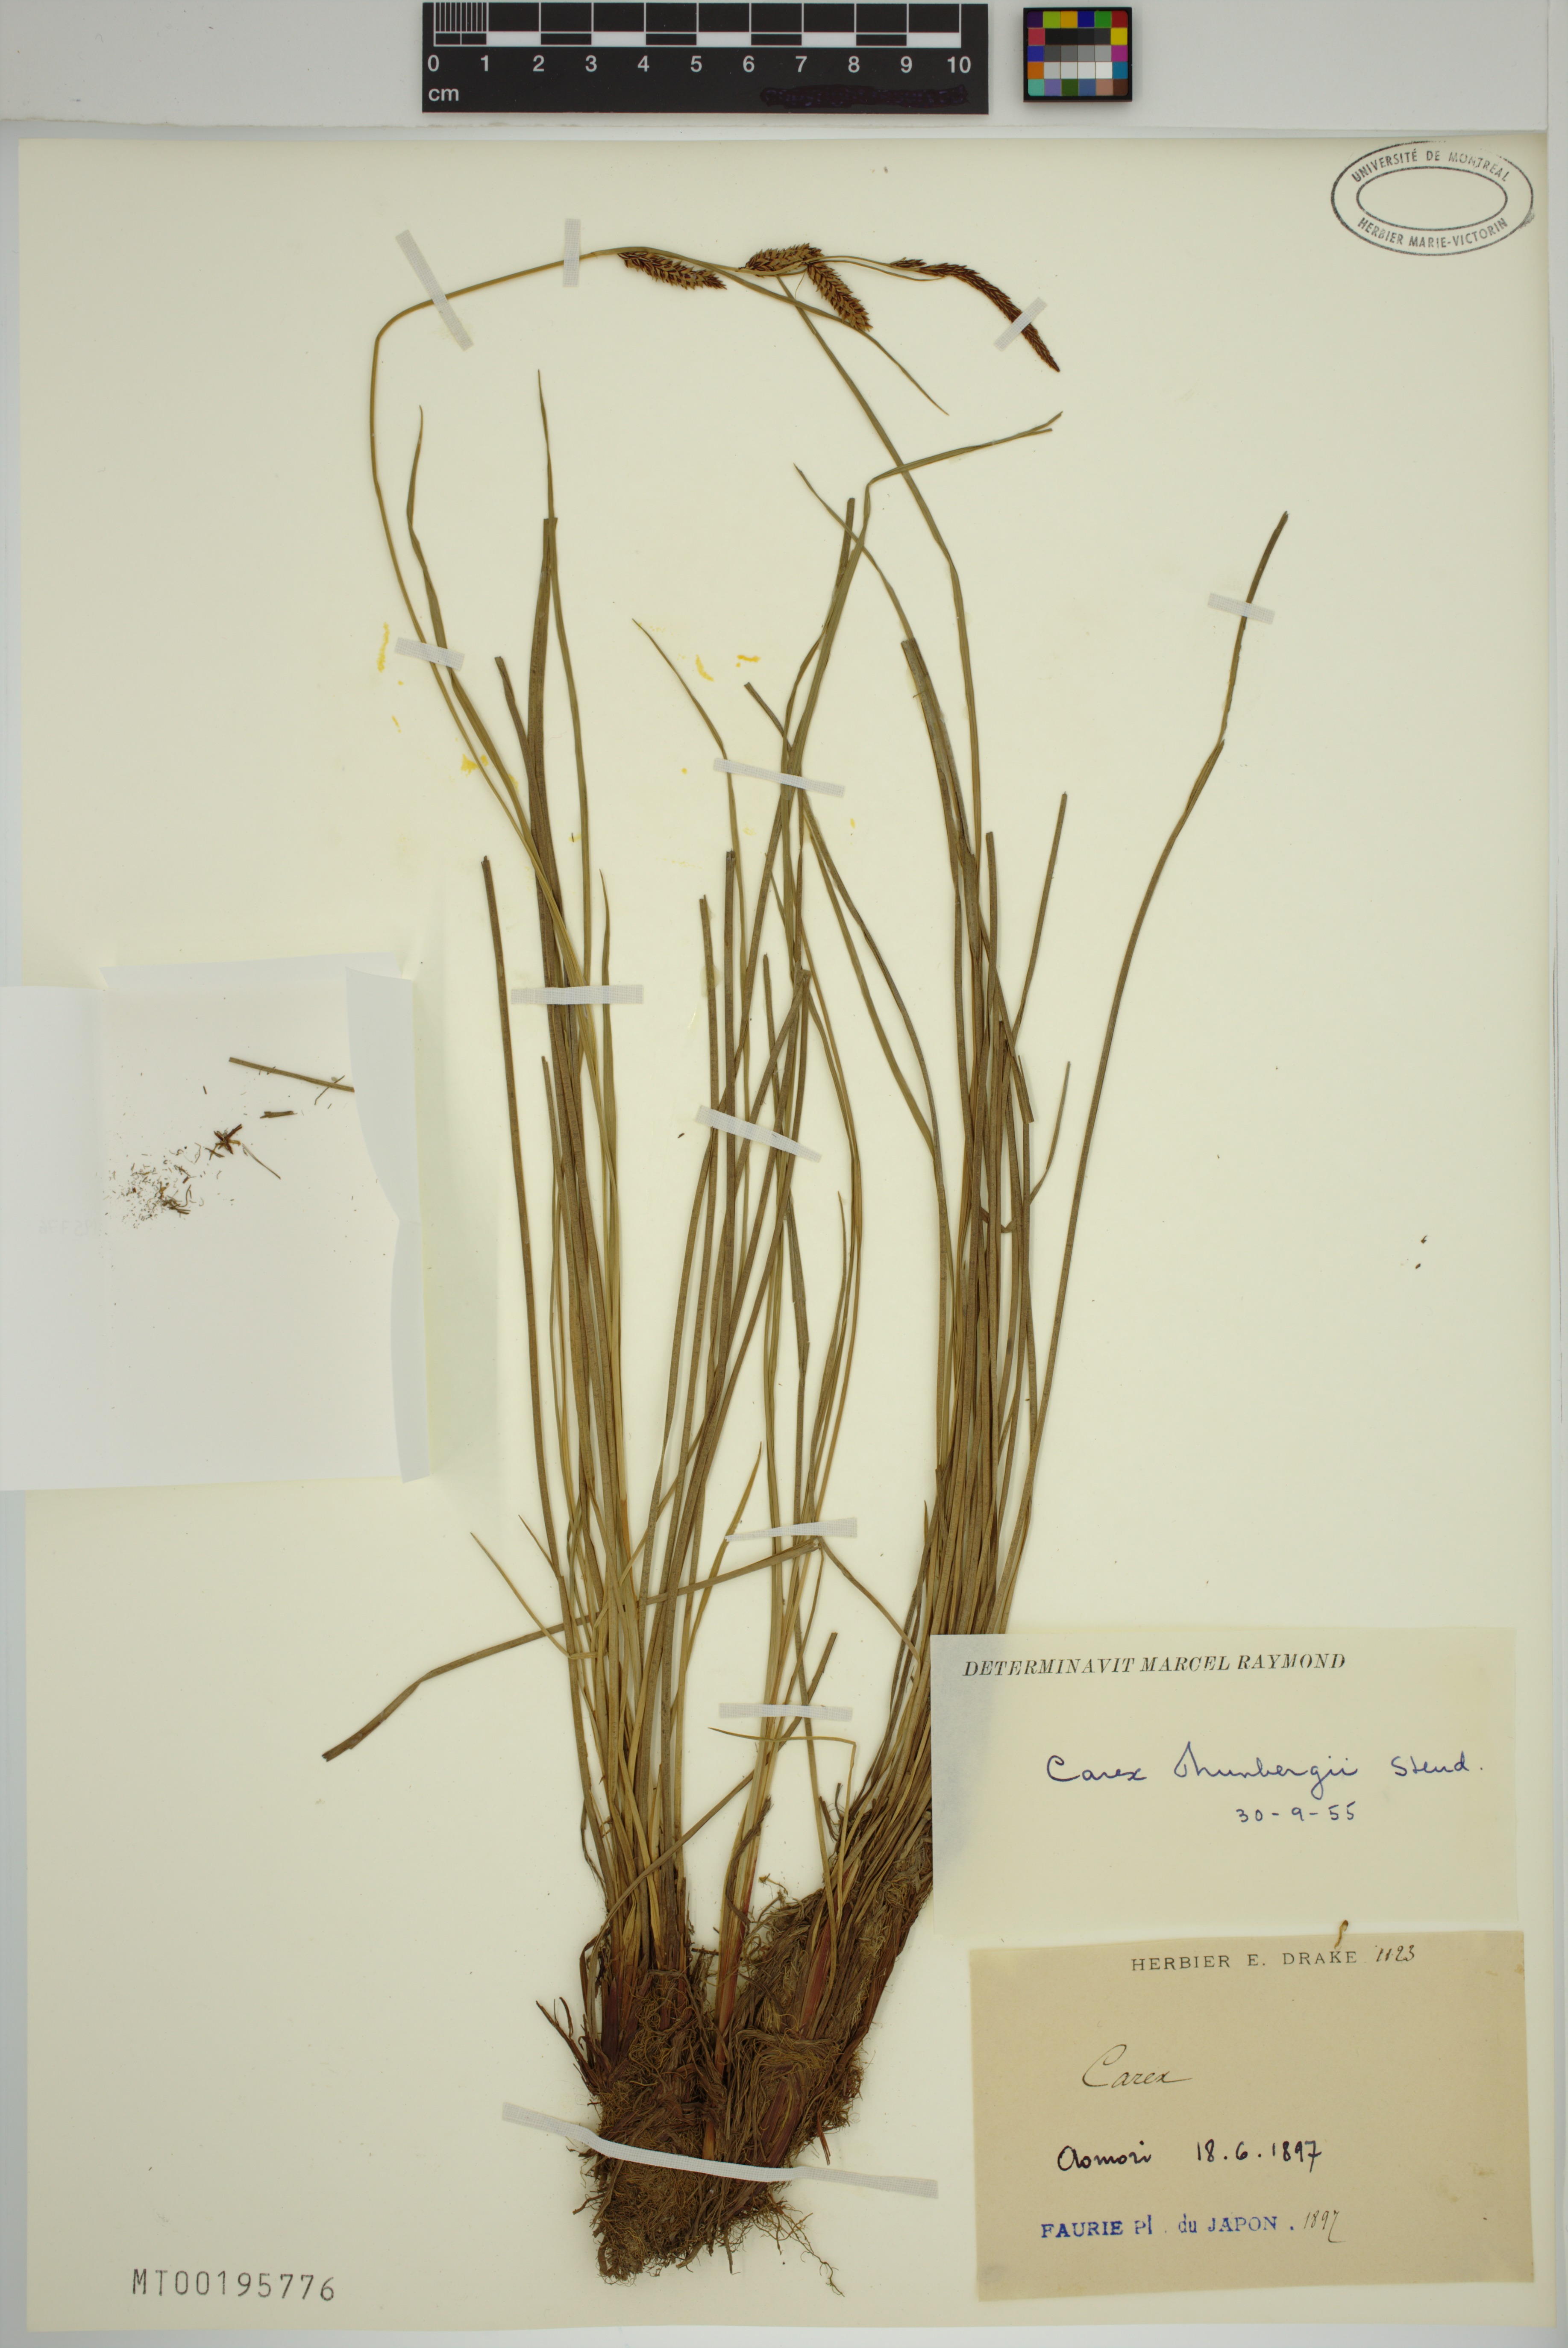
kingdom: Plantae
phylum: Tracheophyta
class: Liliopsida
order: Poales
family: Cyperaceae
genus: Carex
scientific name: Carex thunbergii
